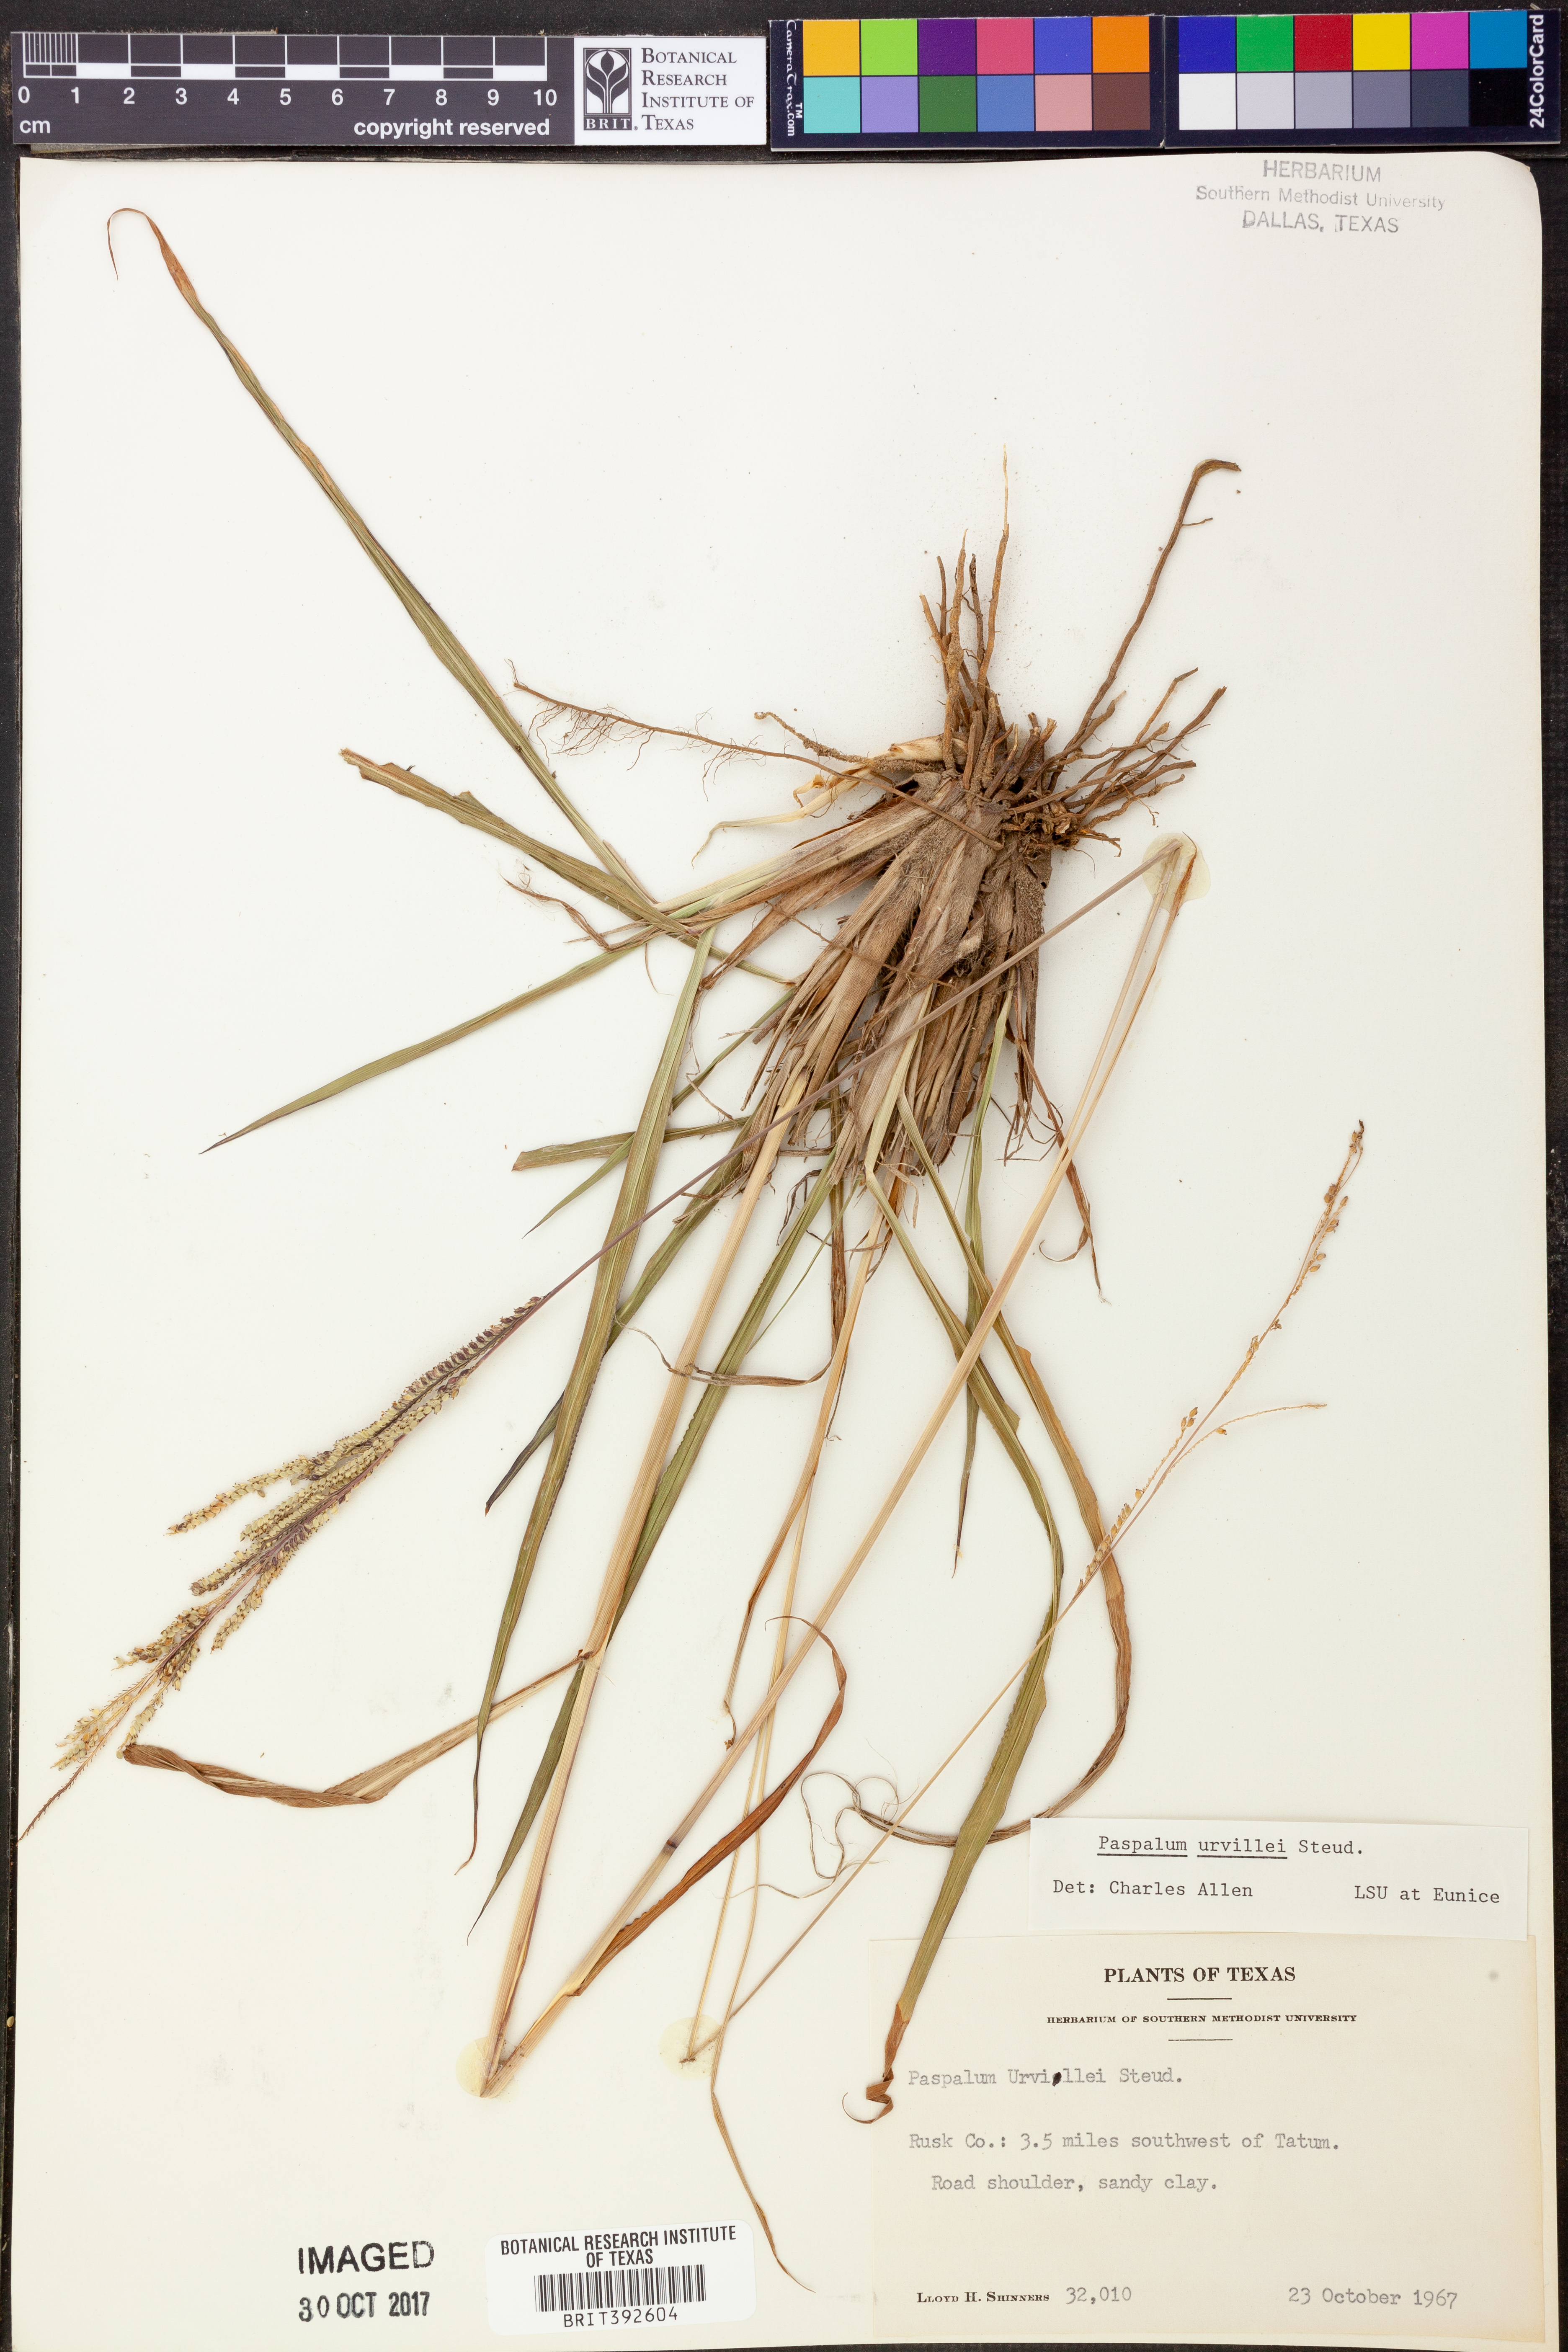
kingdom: Plantae
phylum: Tracheophyta
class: Liliopsida
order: Poales
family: Poaceae
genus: Paspalum
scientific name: Paspalum urvillei
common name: Vasey's grass
